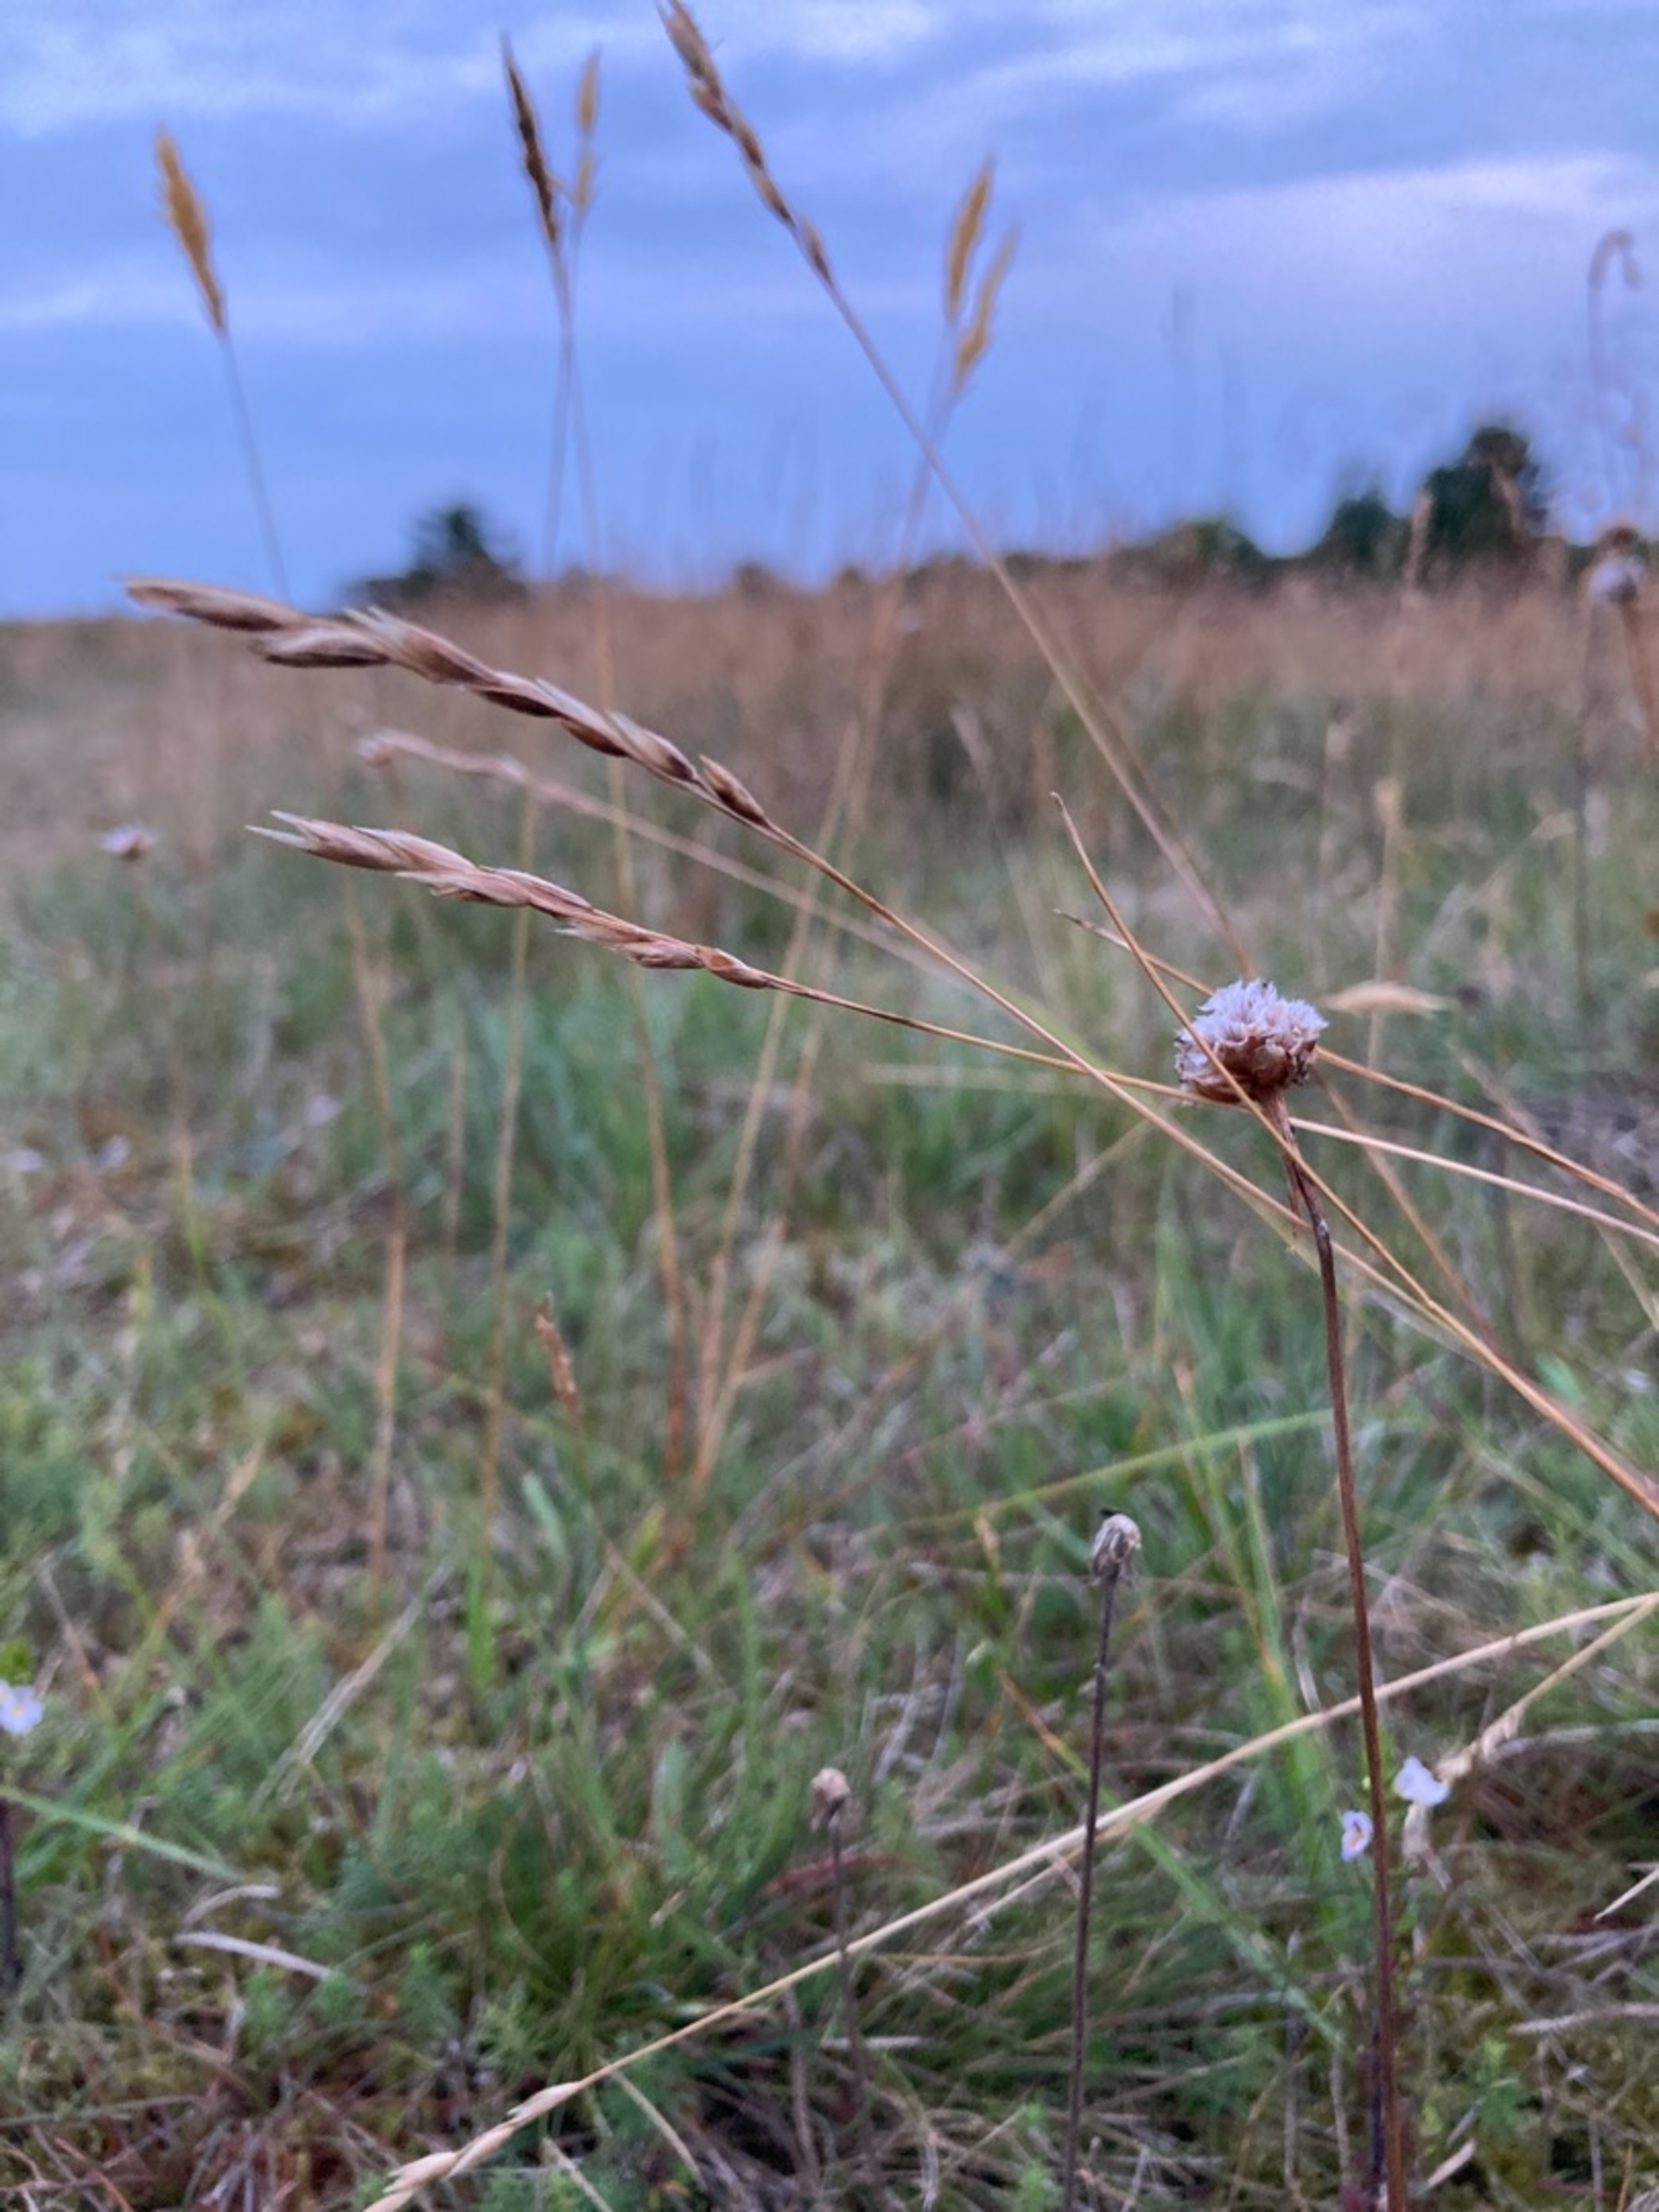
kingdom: Plantae
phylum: Tracheophyta
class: Liliopsida
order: Poales
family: Poaceae
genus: Danthonia
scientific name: Danthonia decumbens
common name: Tandbælg
